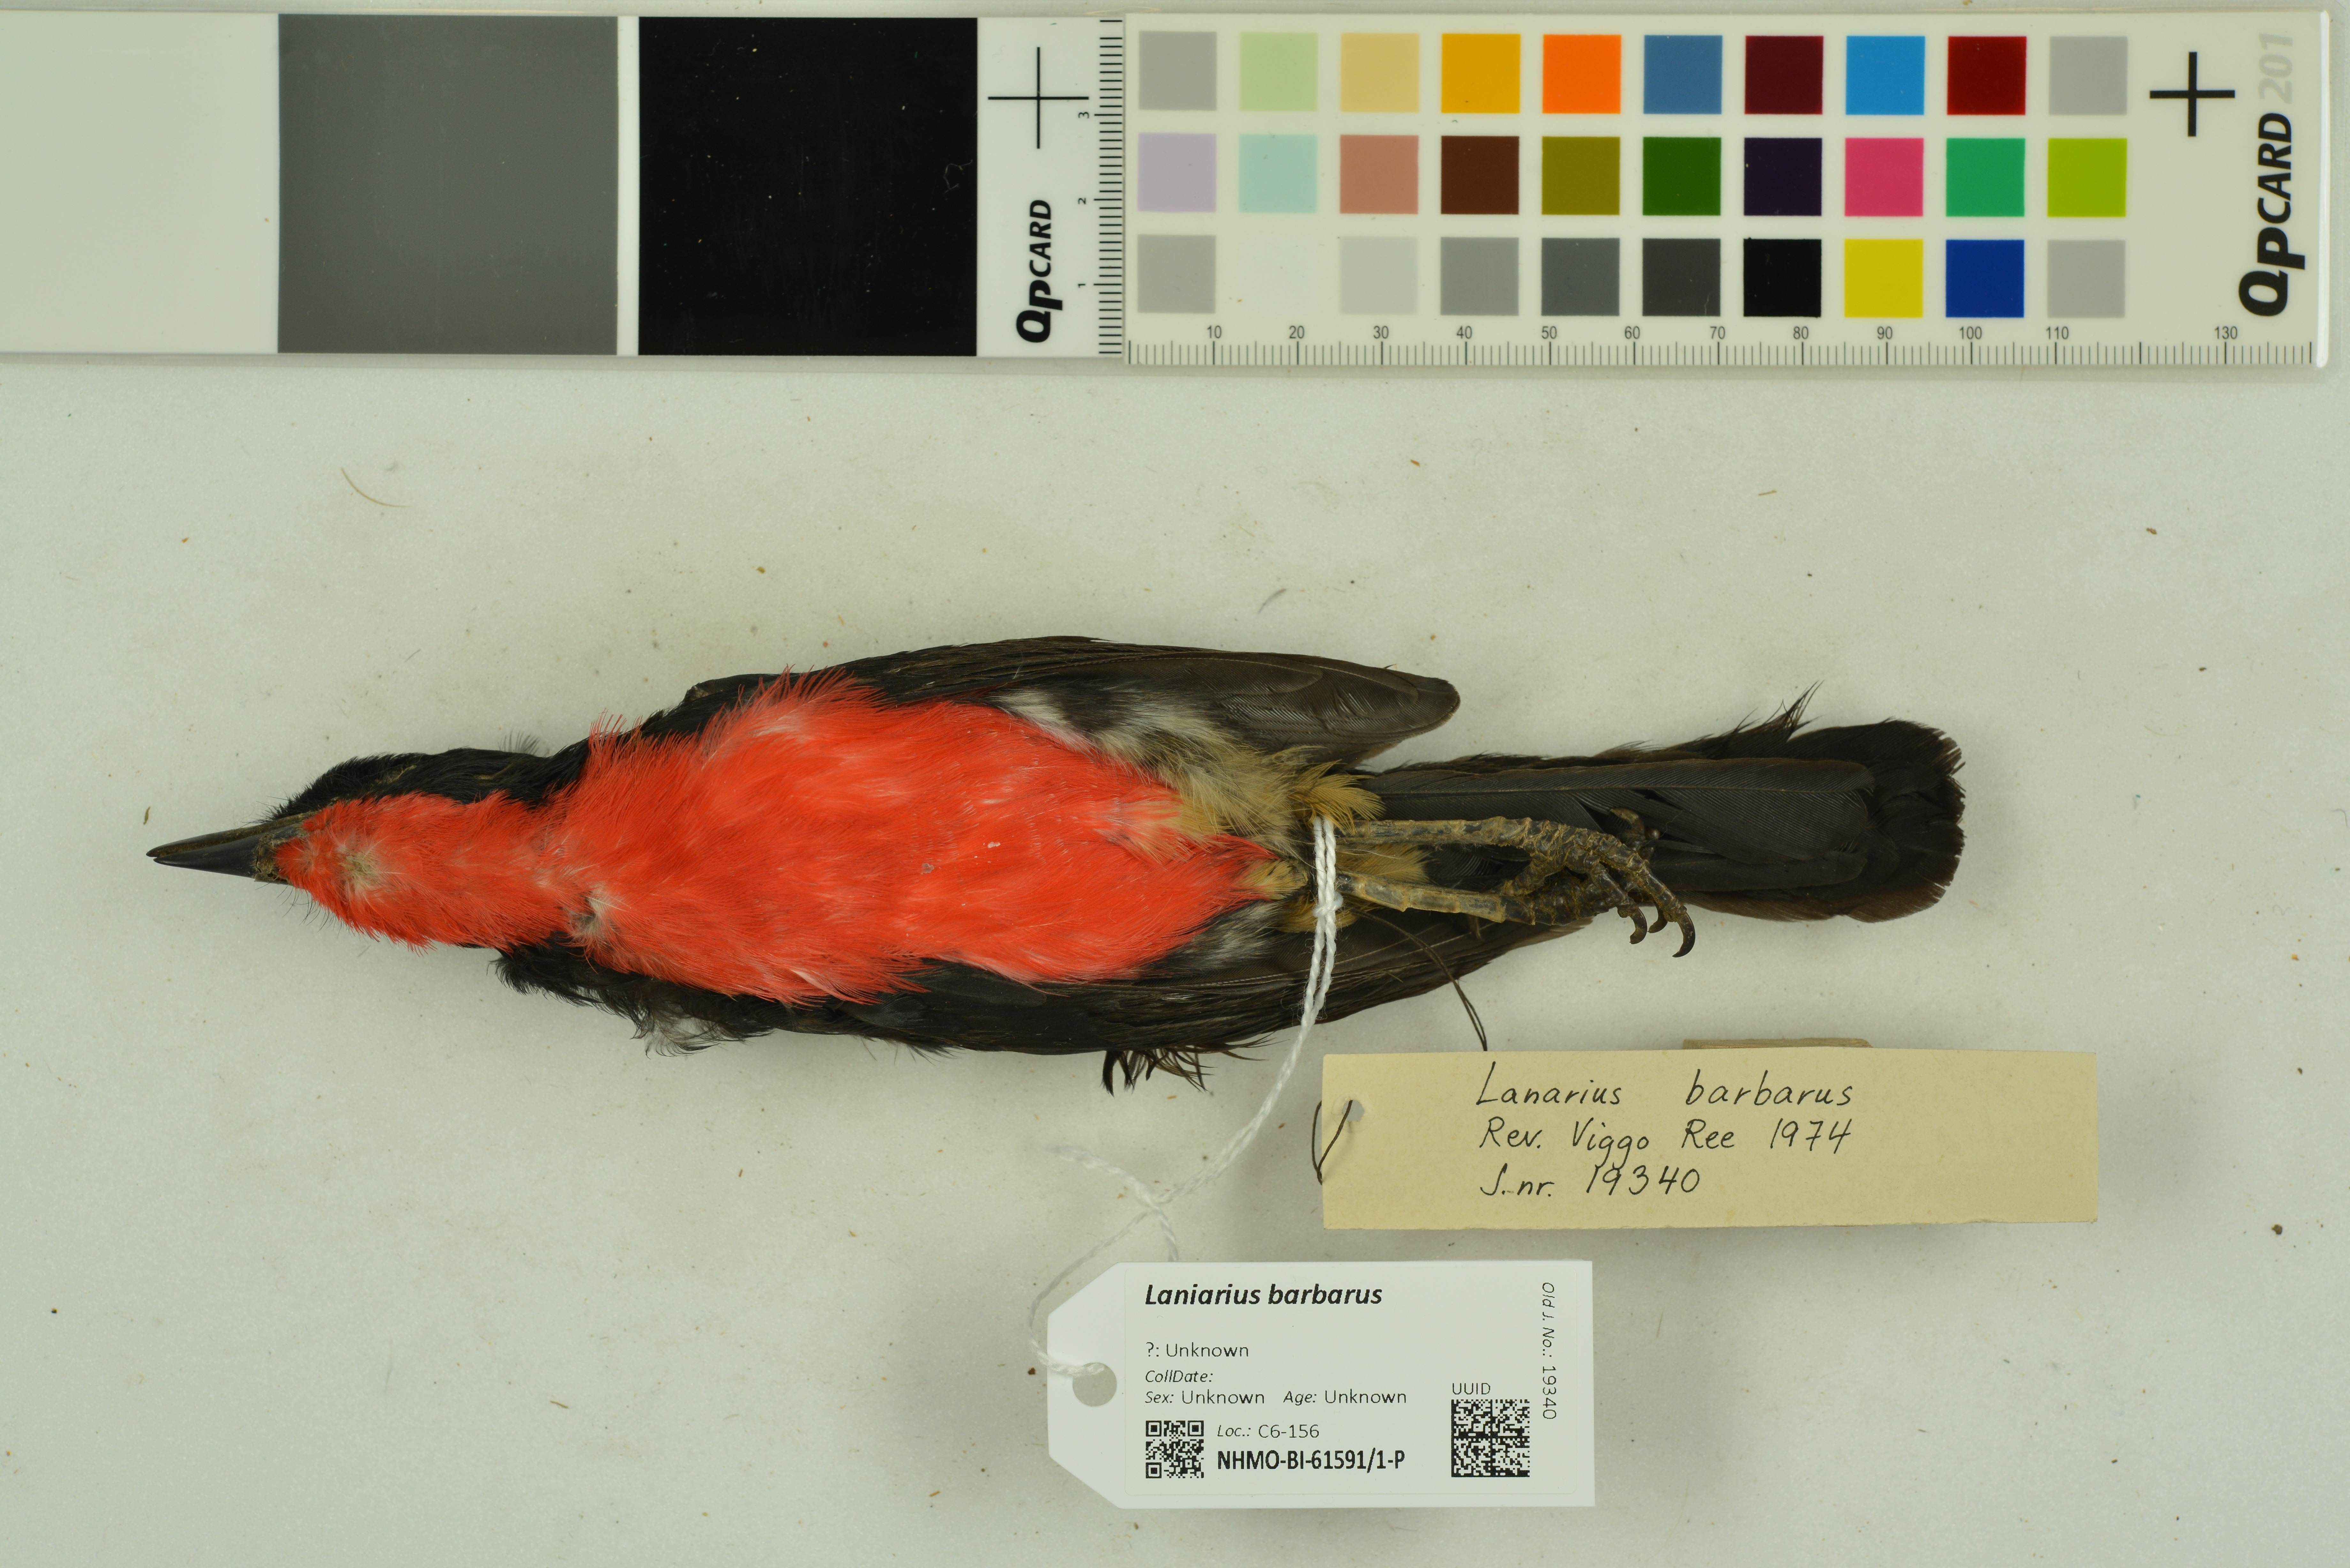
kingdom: Animalia
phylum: Chordata
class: Aves
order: Passeriformes
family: Malaconotidae
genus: Laniarius
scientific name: Laniarius barbarus
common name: Yellow-crowned gonolek
